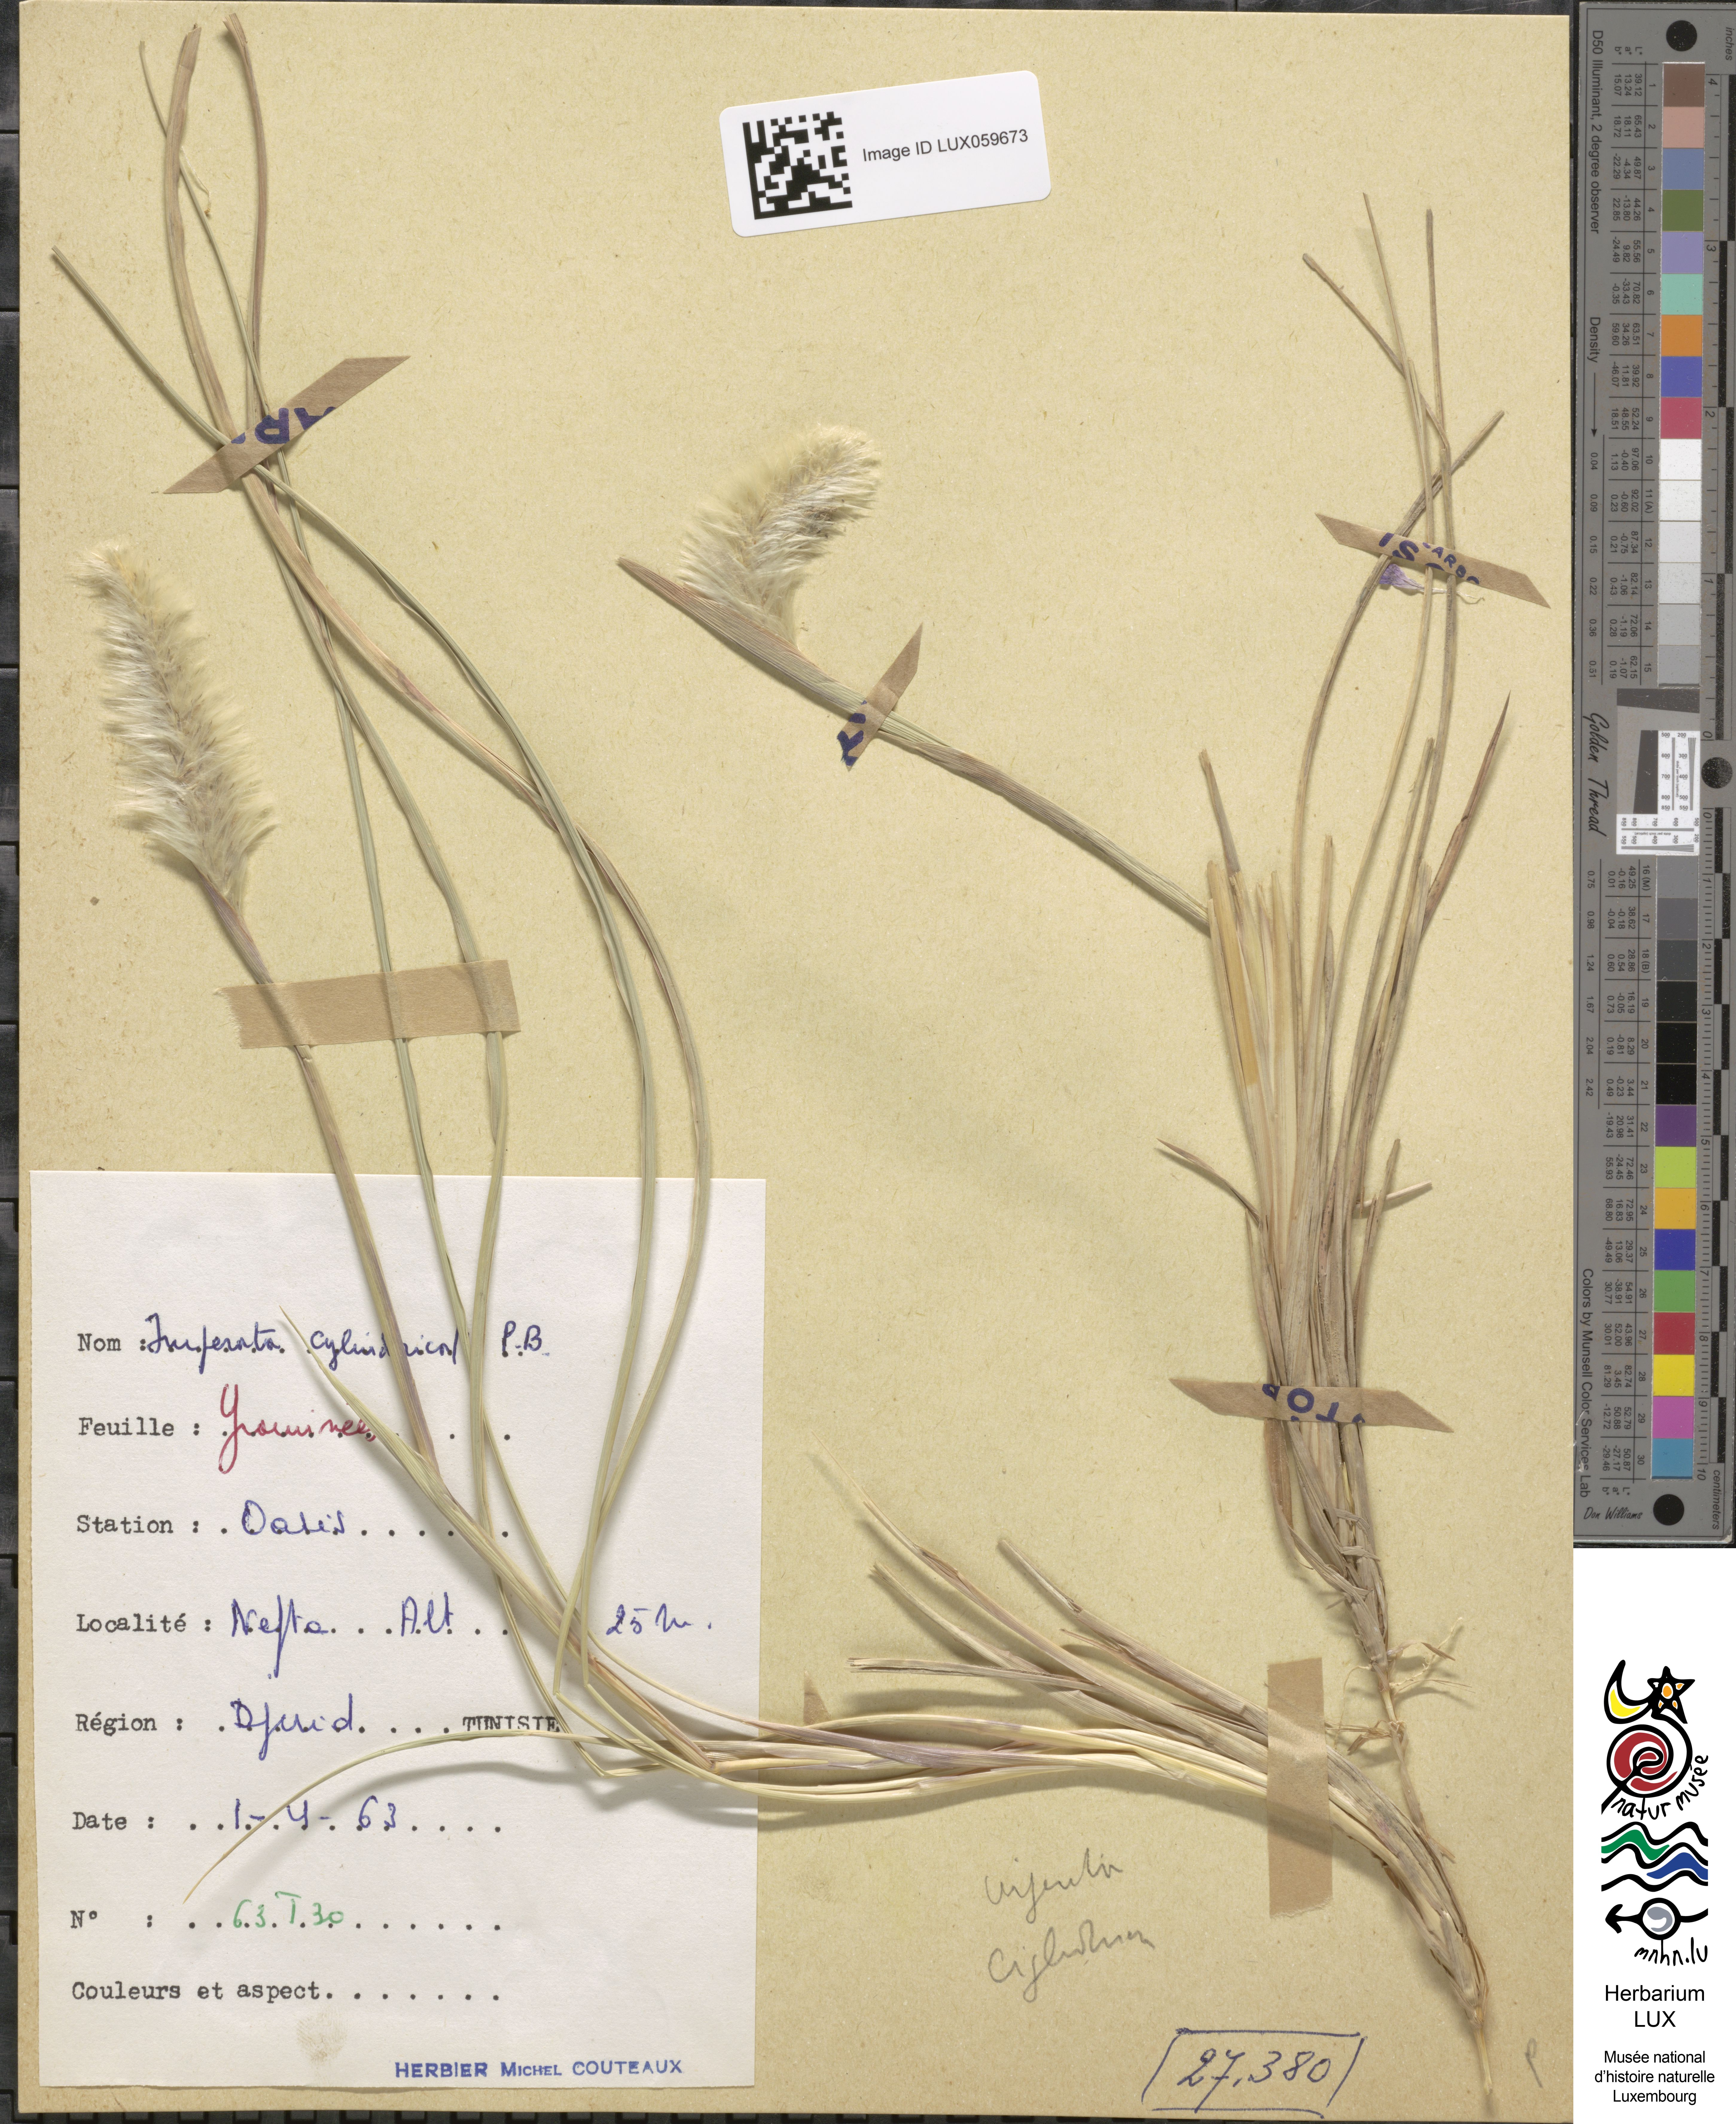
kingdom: Plantae
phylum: Tracheophyta
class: Liliopsida
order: Poales
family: Poaceae
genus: Imperata
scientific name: Imperata cylindrica
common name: Cogongrass
